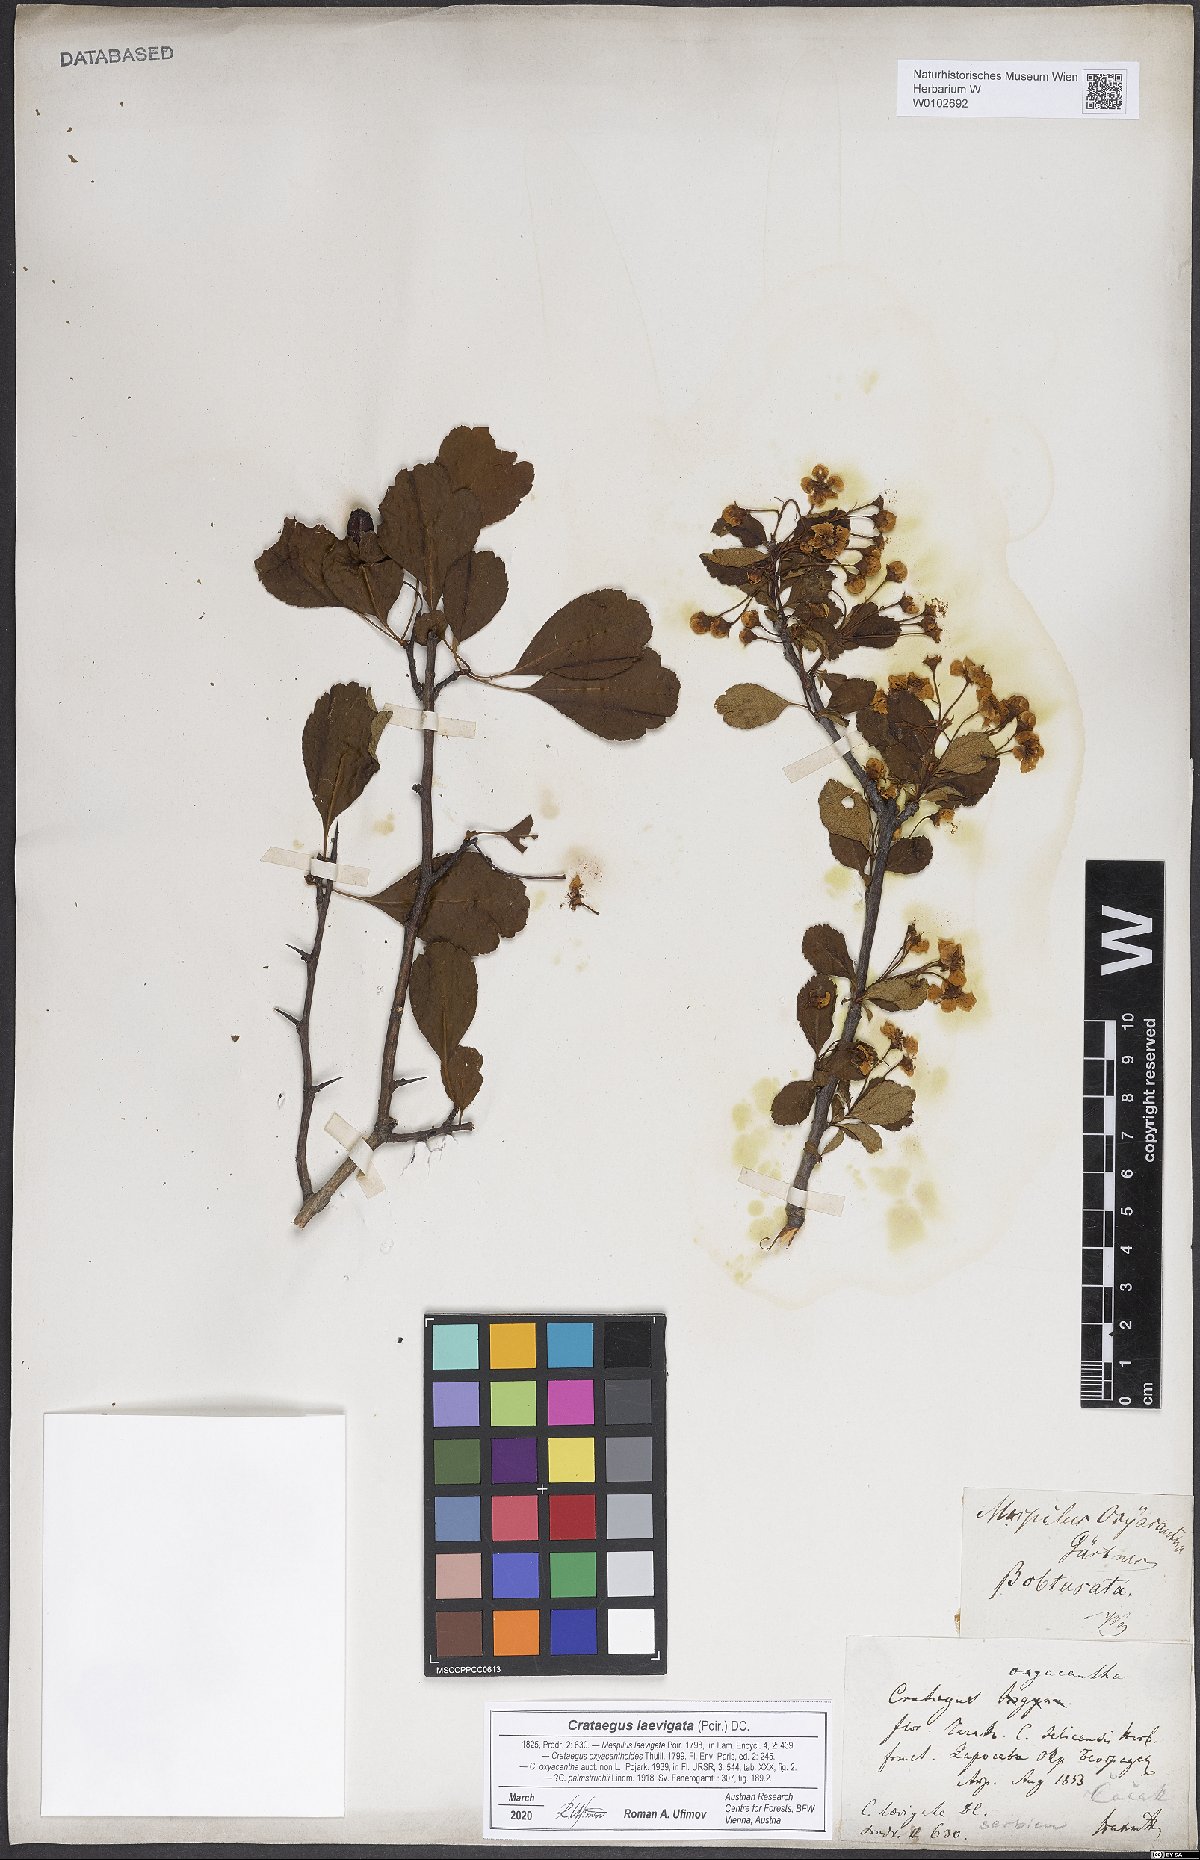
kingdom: Plantae
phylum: Tracheophyta
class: Magnoliopsida
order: Rosales
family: Rosaceae
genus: Crataegus
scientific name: Crataegus laevigata
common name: Midland hawthorn
